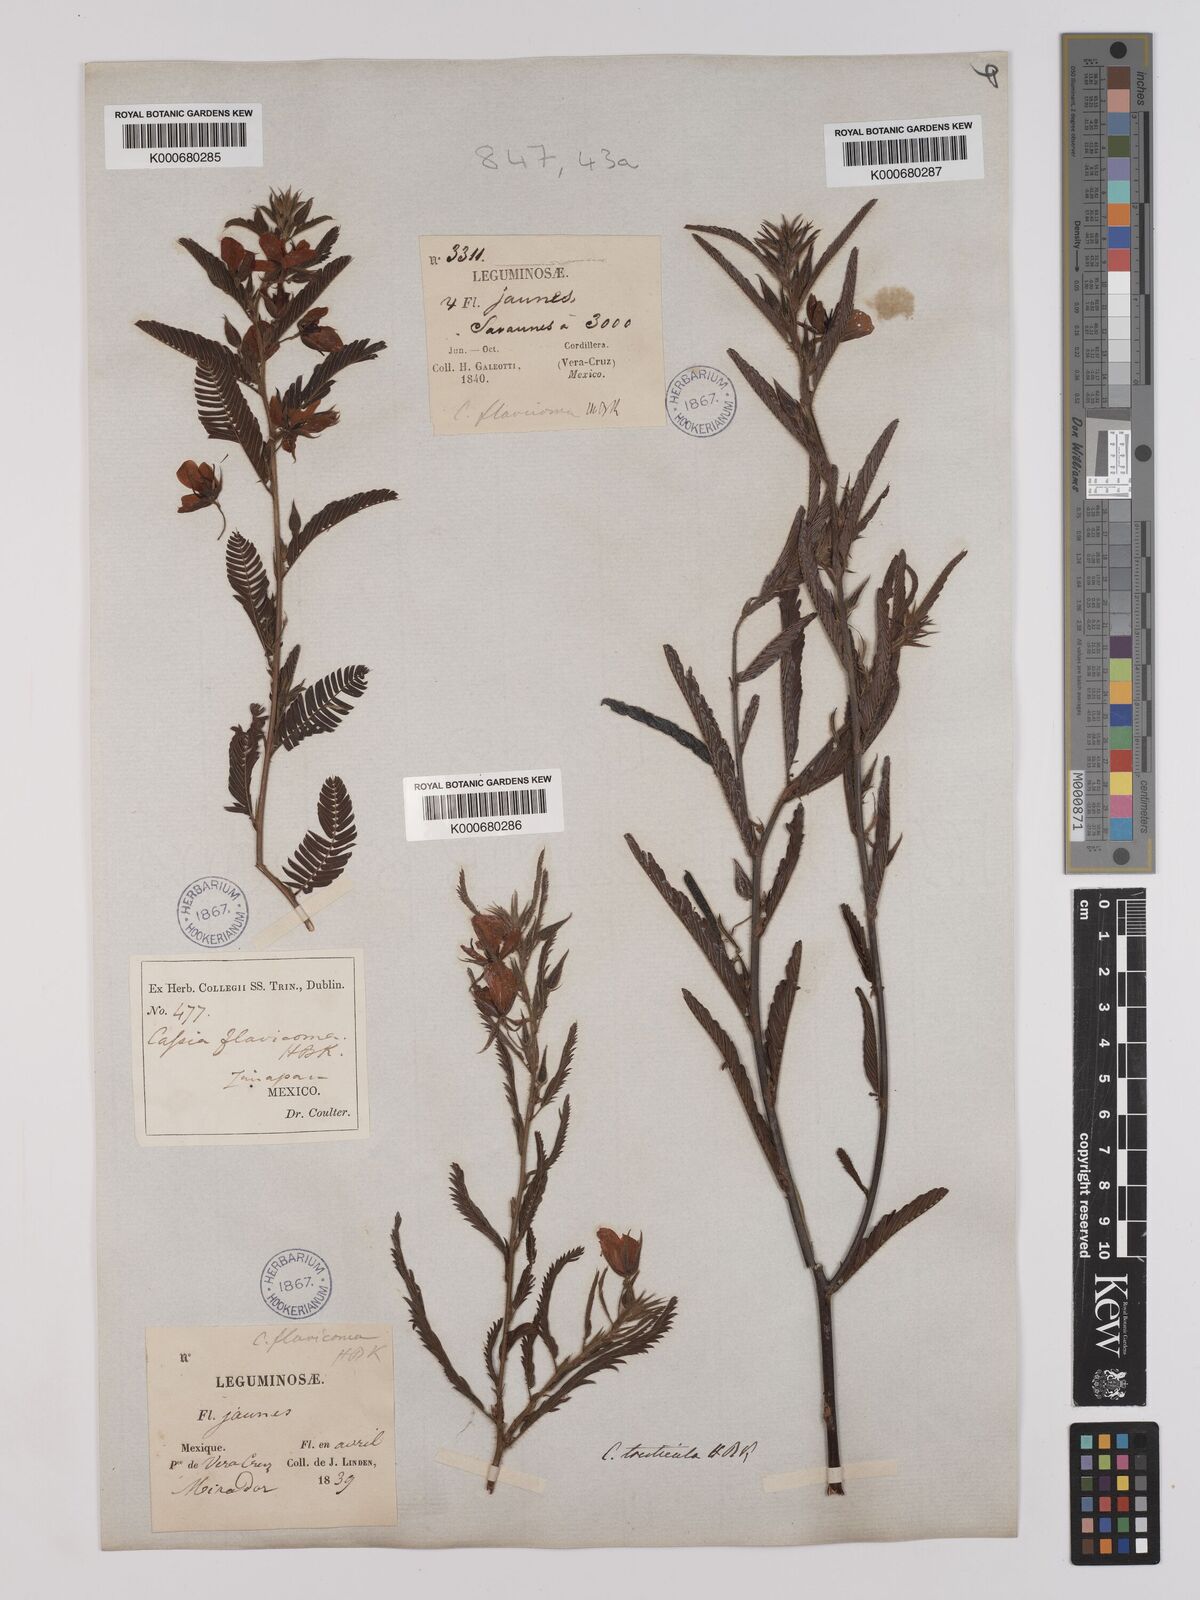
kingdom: Plantae
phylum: Tracheophyta
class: Magnoliopsida
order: Fabales
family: Fabaceae
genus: Chamaecrista
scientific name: Chamaecrista glandulosa
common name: Wild peas
